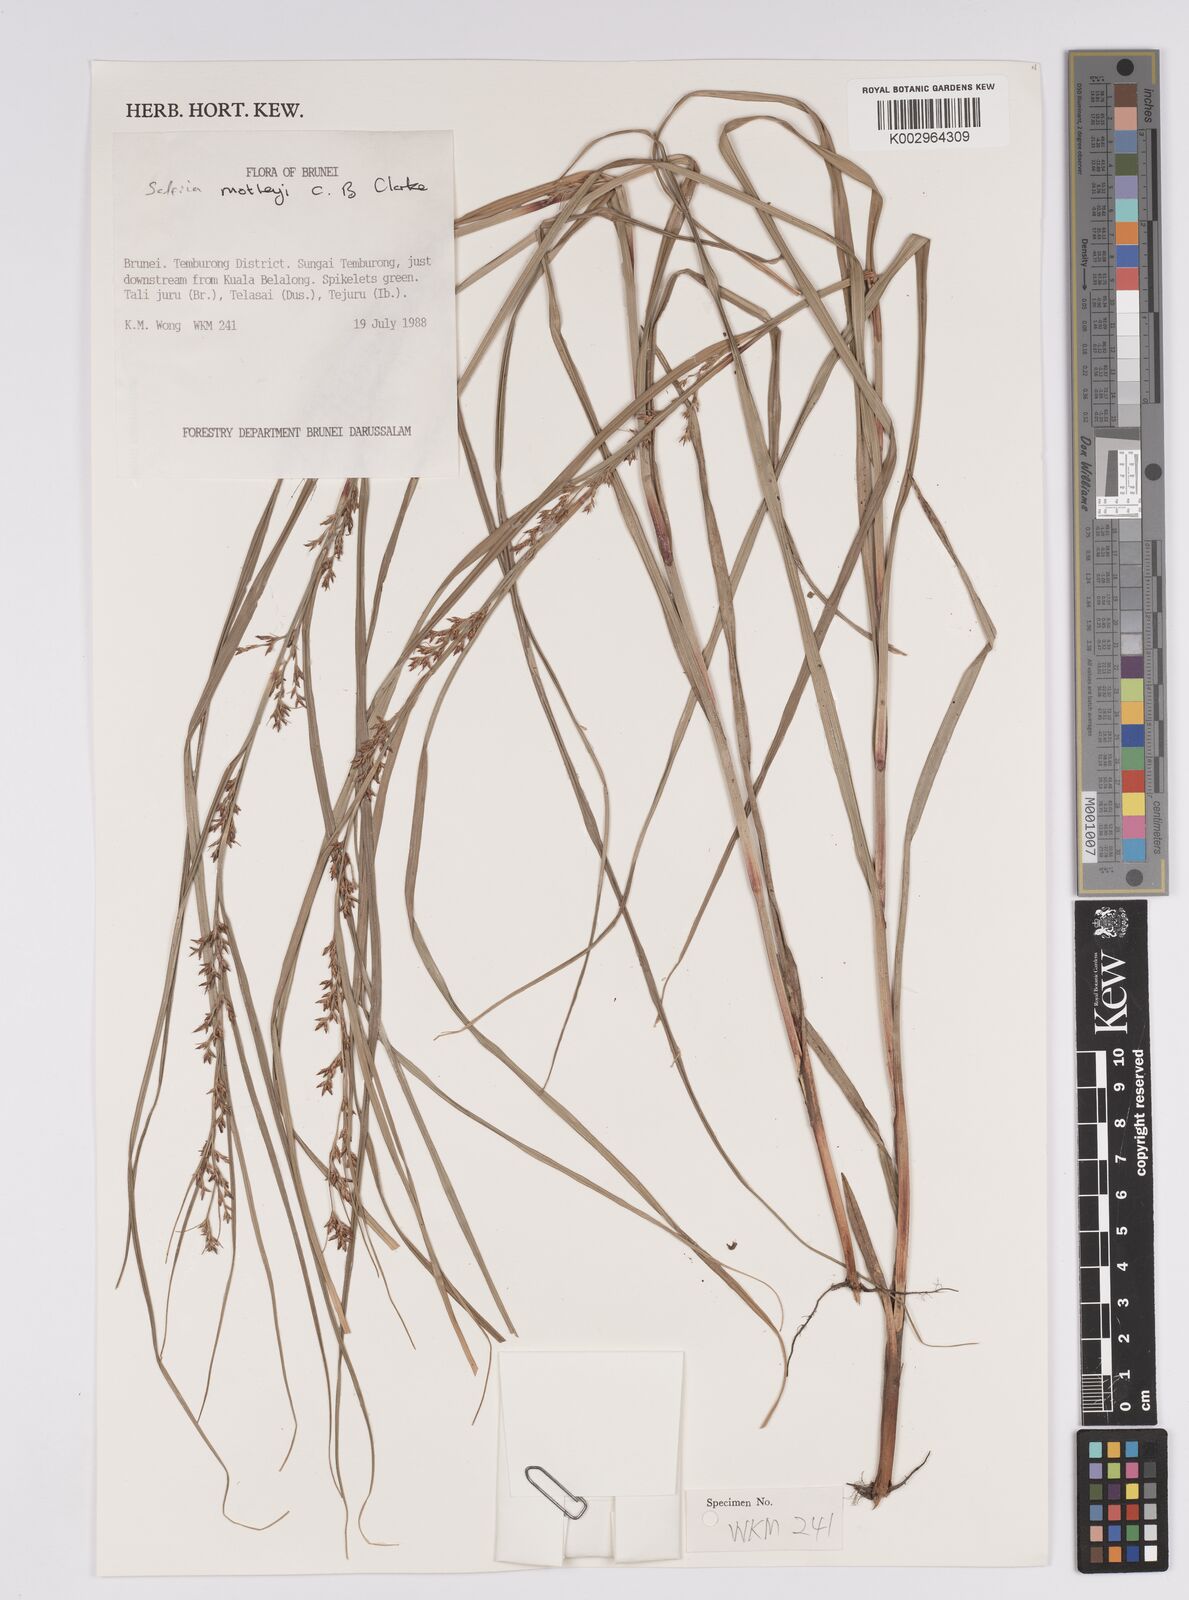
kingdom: Plantae
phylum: Tracheophyta
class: Liliopsida
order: Poales
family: Cyperaceae
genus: Scleria
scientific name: Scleria motleyi
